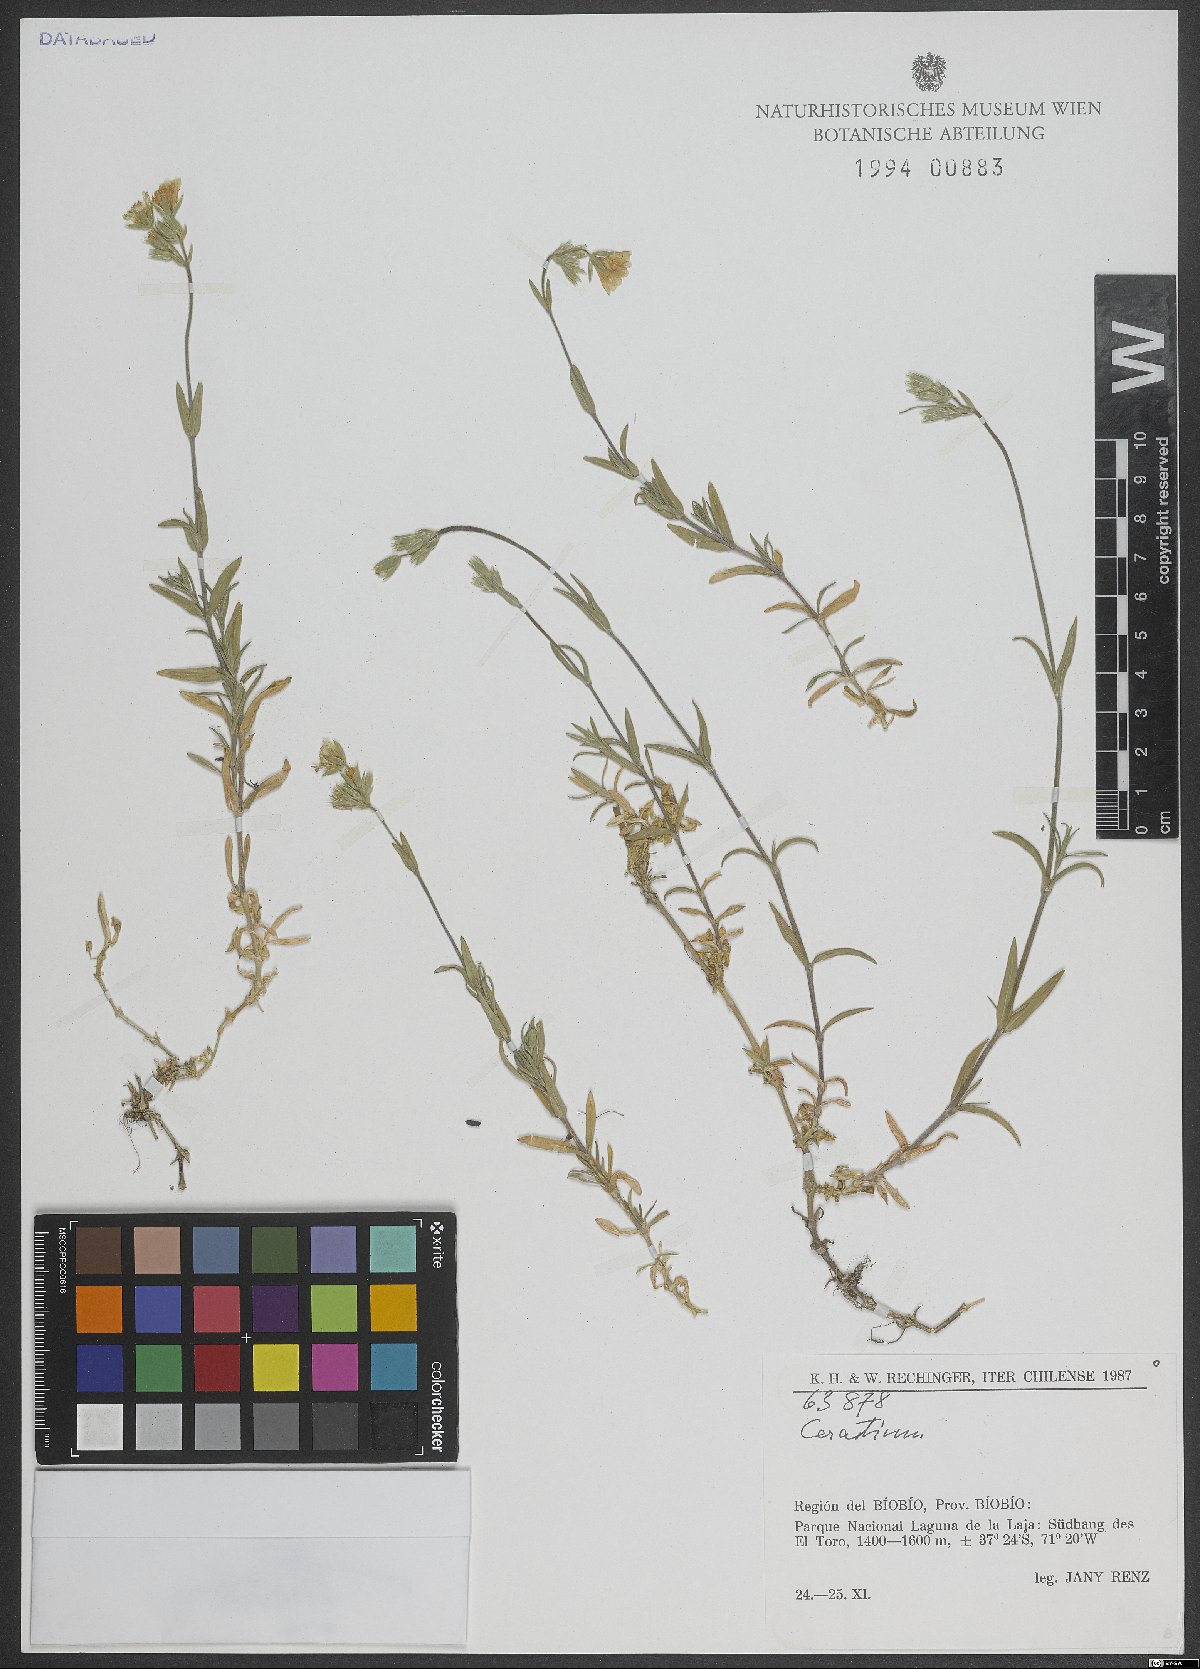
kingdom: Plantae
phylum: Tracheophyta
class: Magnoliopsida
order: Caryophyllales
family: Caryophyllaceae
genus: Cerastium
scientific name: Cerastium
